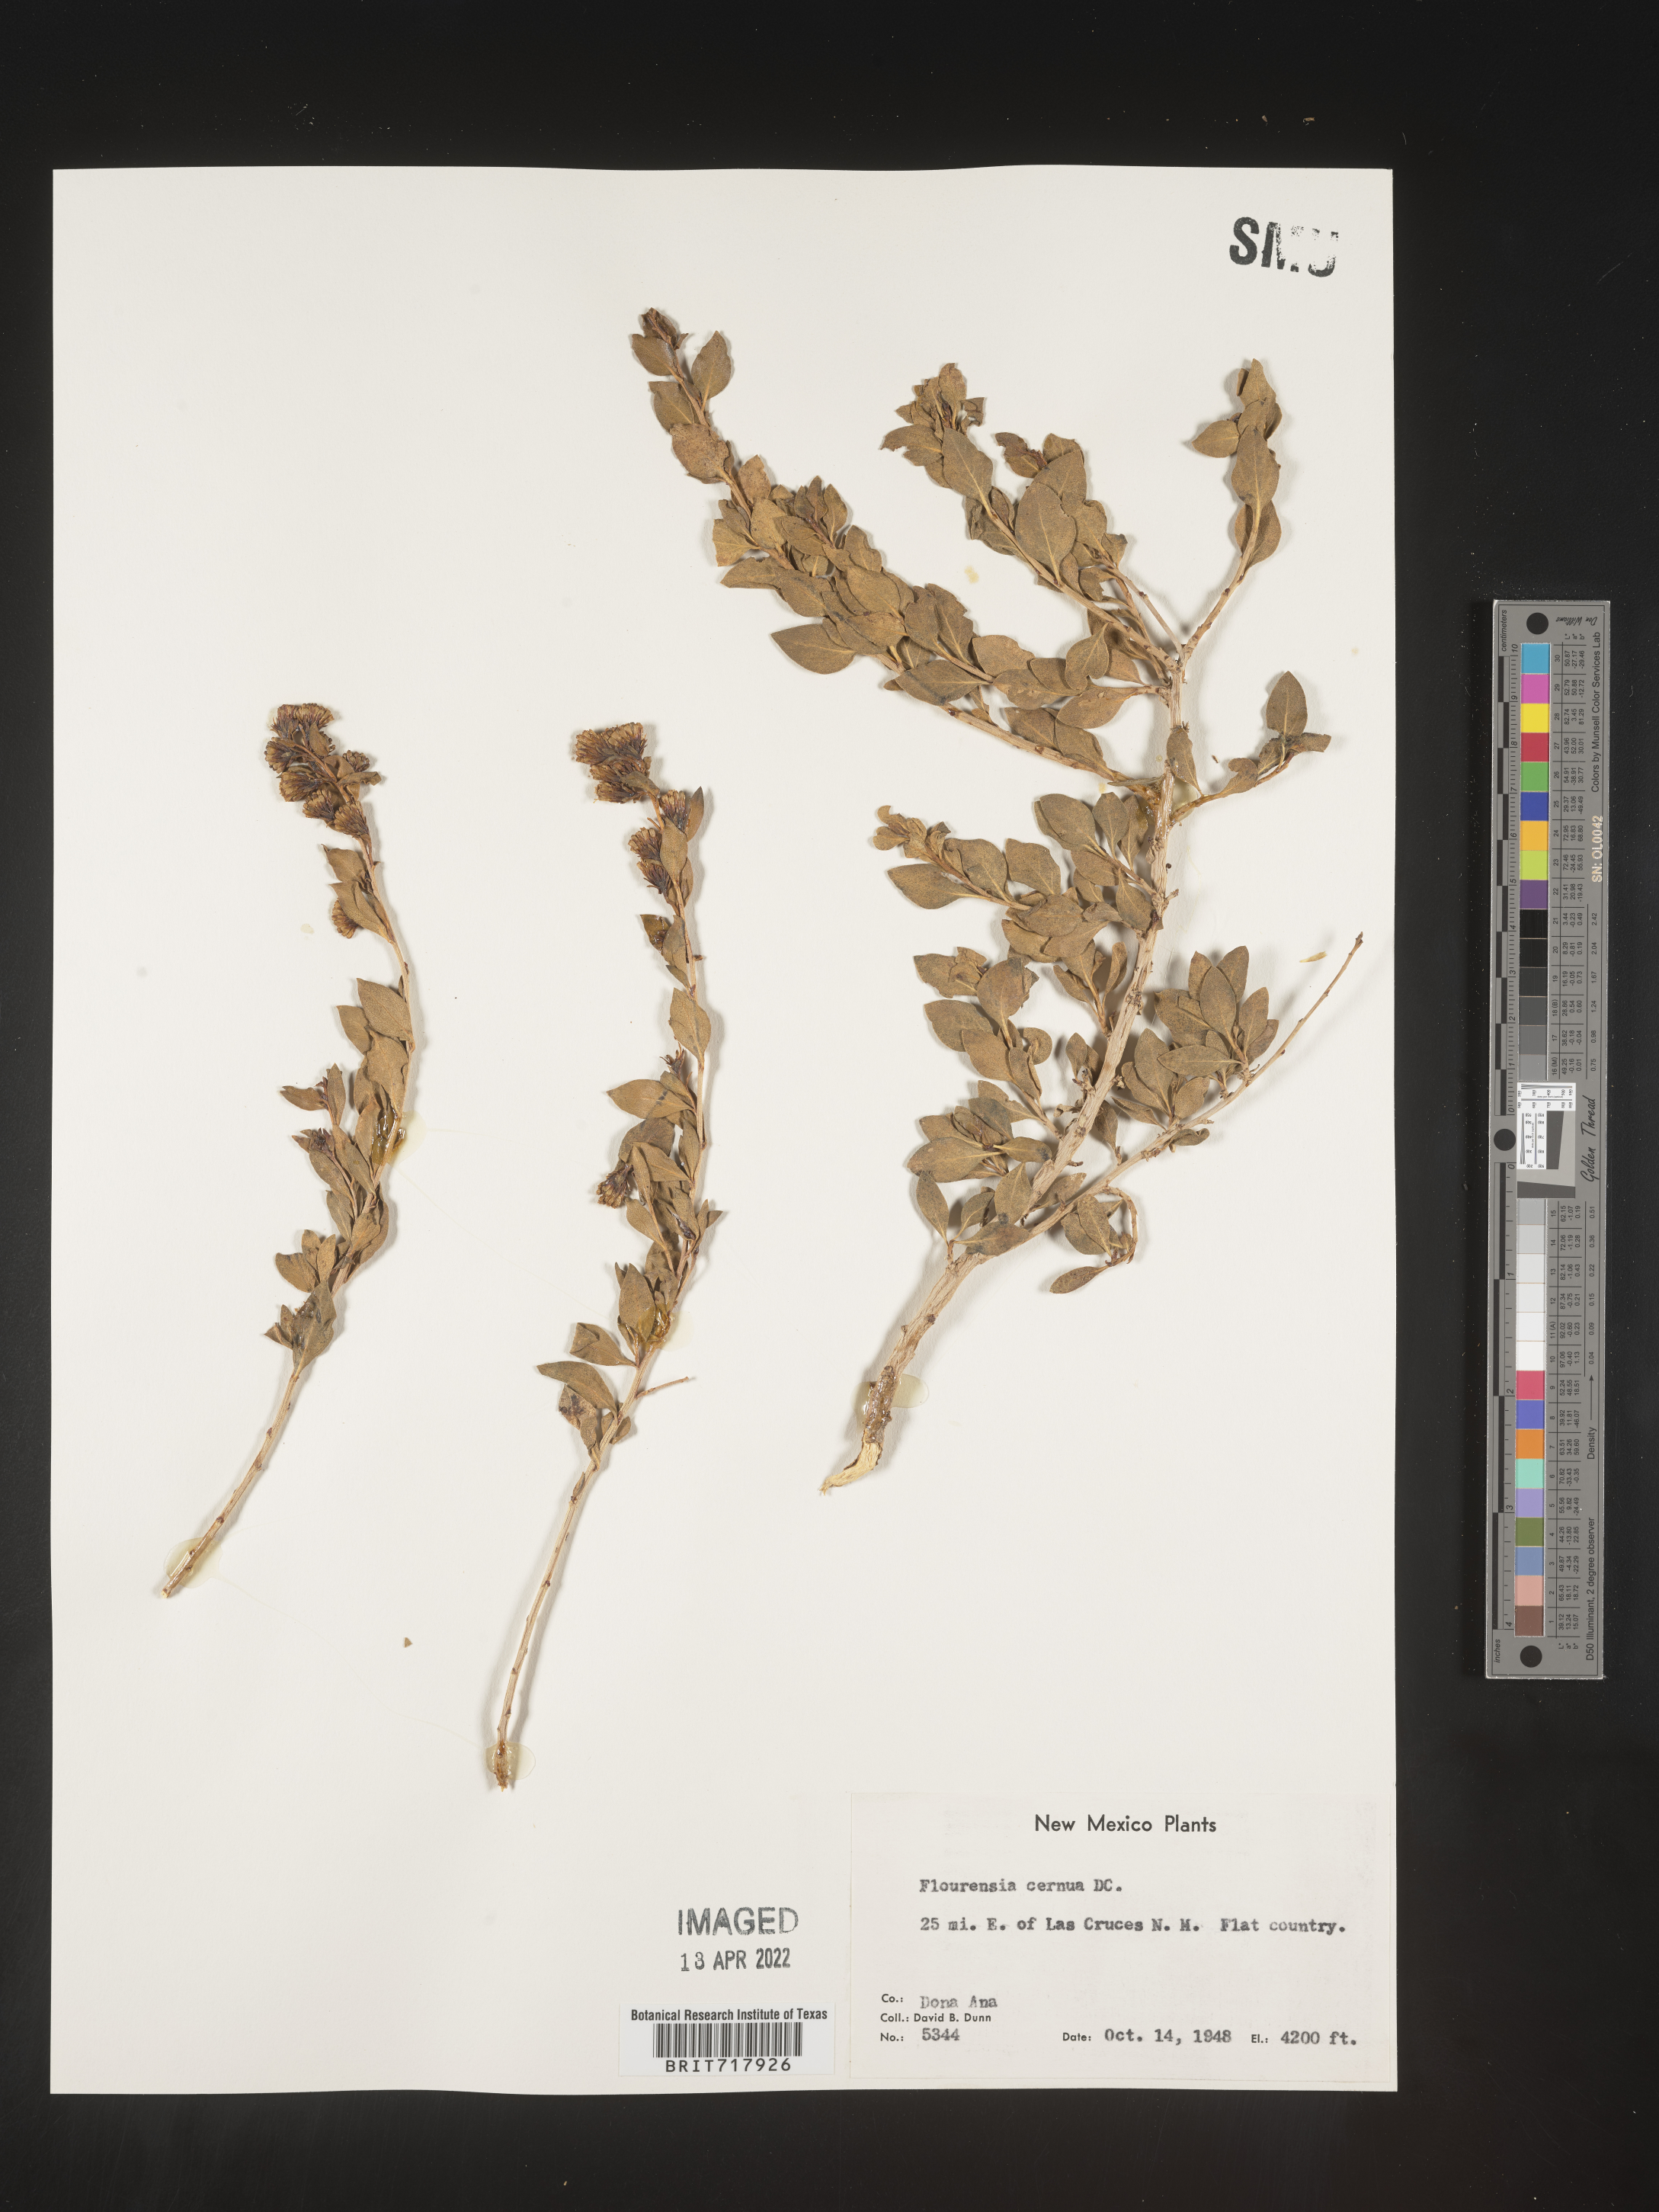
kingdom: Plantae
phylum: Tracheophyta
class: Magnoliopsida
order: Asterales
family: Asteraceae
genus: Flourensia
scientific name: Flourensia
